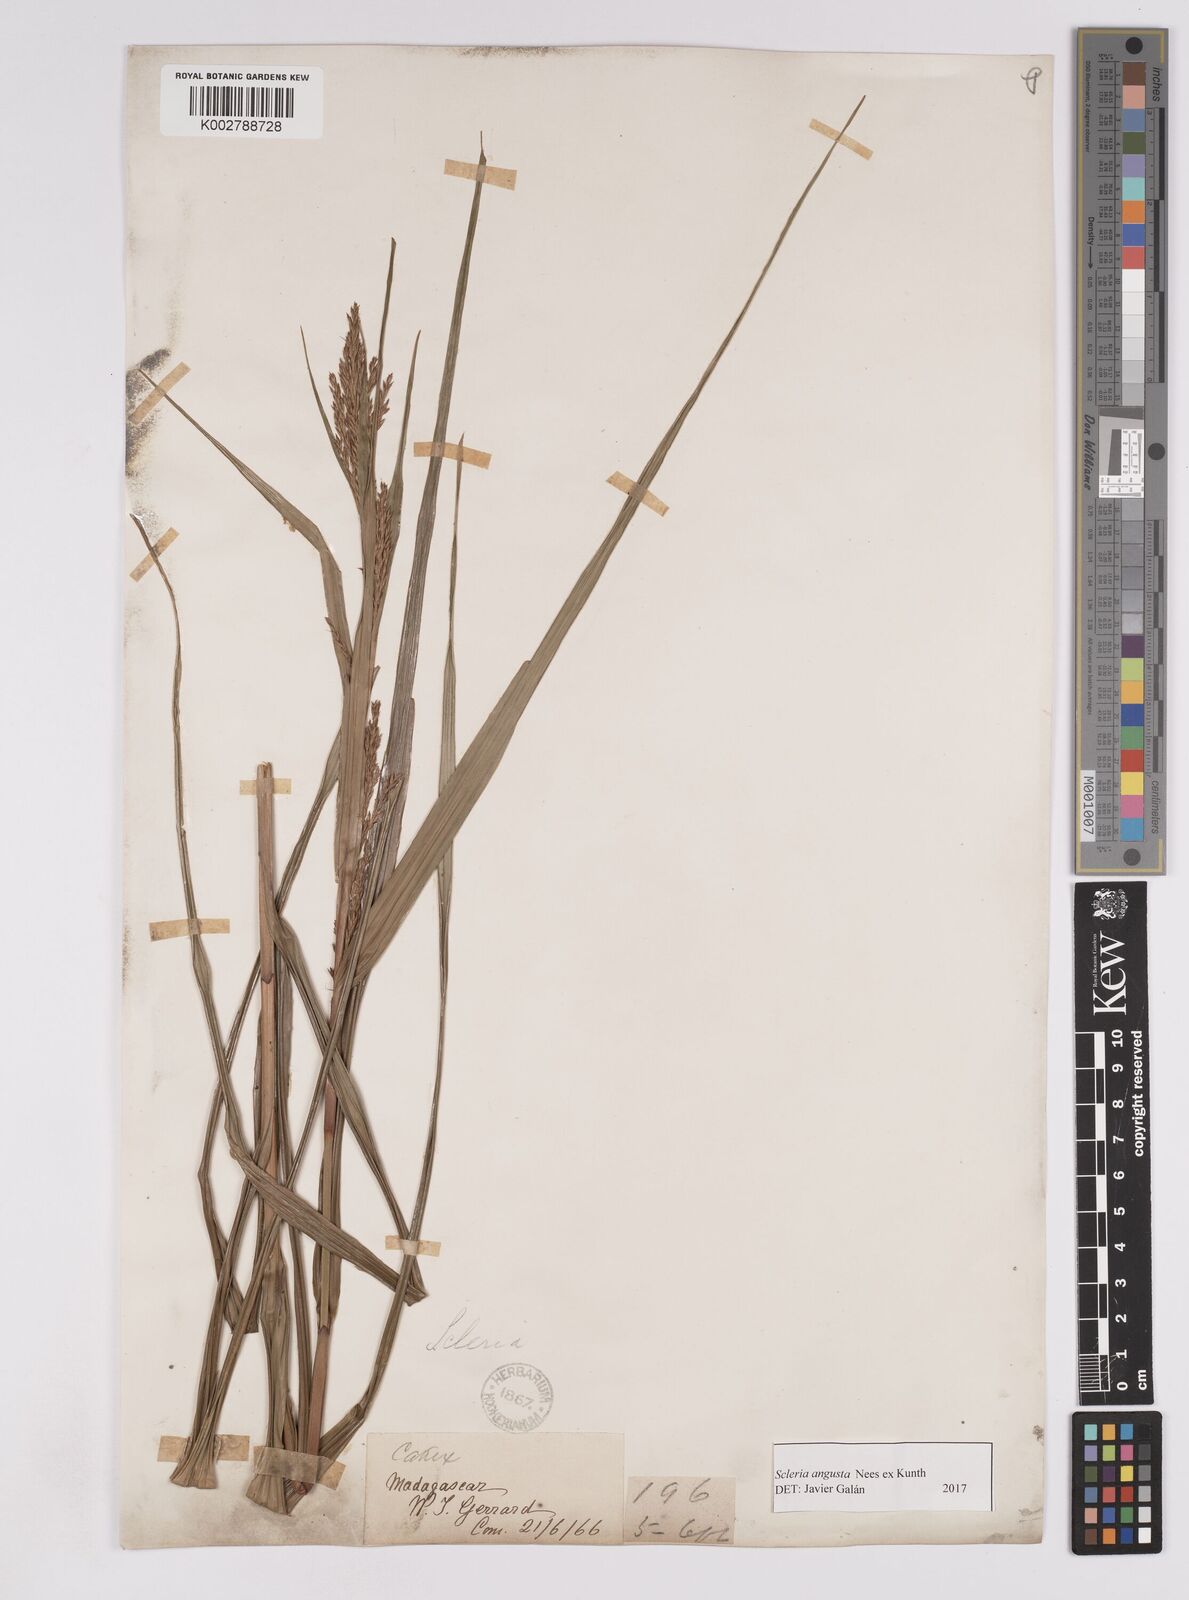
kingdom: Plantae
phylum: Tracheophyta
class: Liliopsida
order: Poales
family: Cyperaceae
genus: Scleria
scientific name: Scleria angusta
